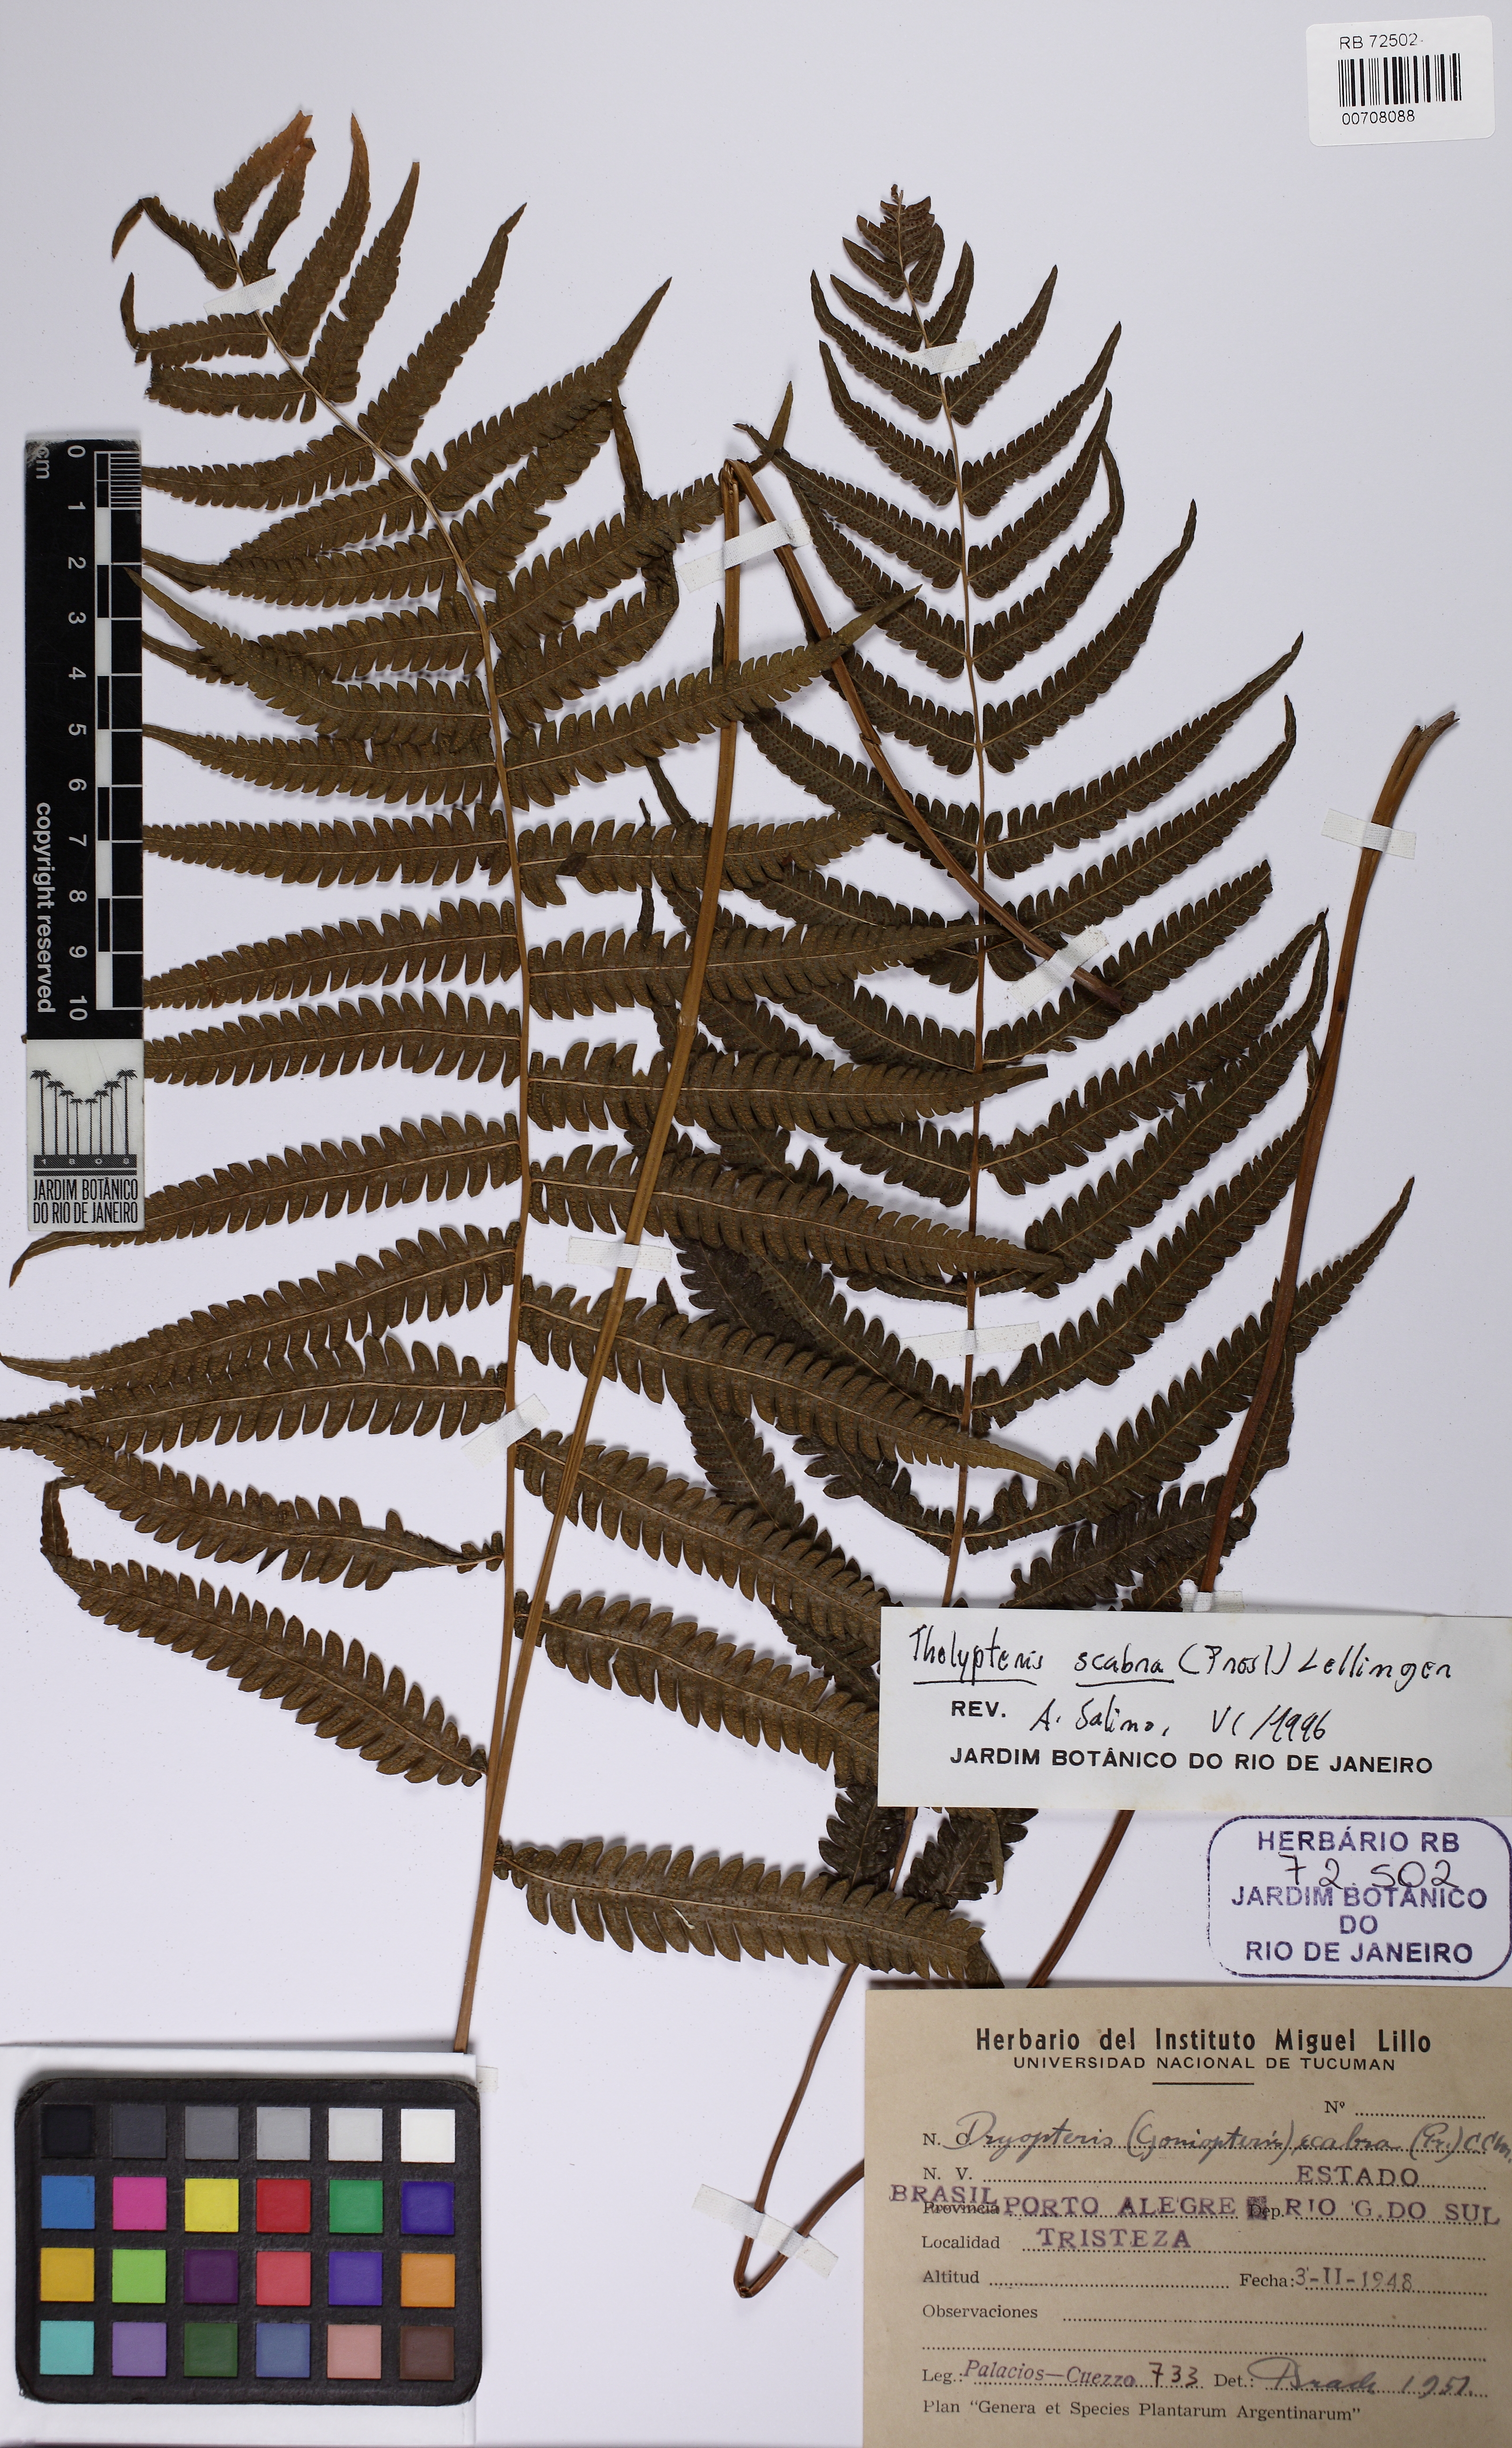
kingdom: Plantae
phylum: Tracheophyta
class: Polypodiopsida
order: Polypodiales
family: Thelypteridaceae
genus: Goniopteris
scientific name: Goniopteris scabra
